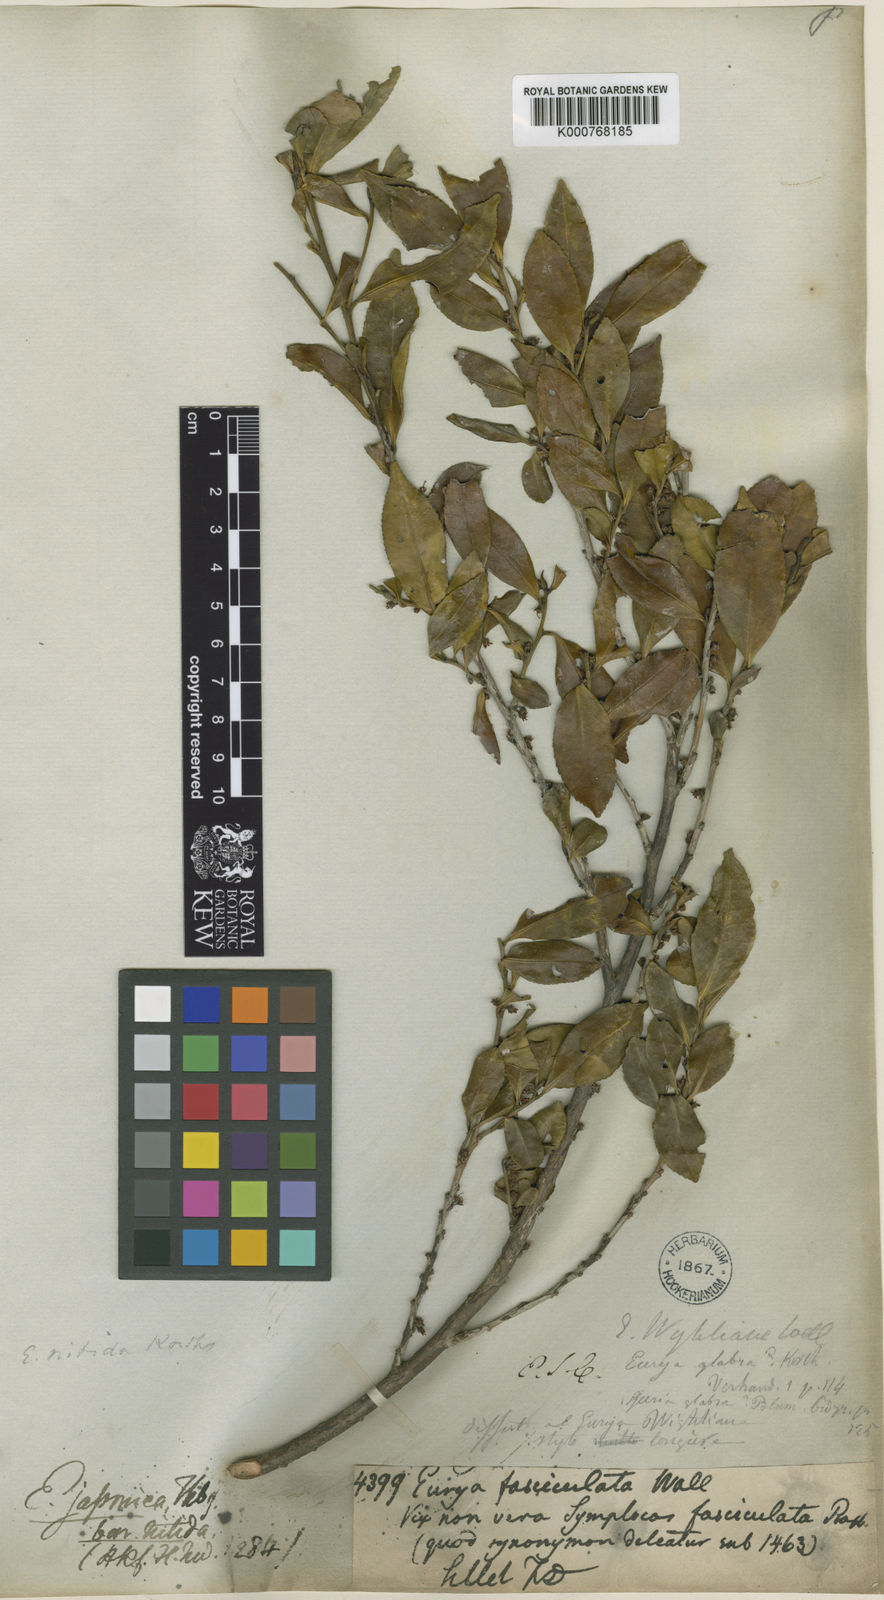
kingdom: Plantae
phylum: Tracheophyta
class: Magnoliopsida
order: Ericales
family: Pentaphylacaceae
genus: Eurya
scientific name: Eurya nitida
